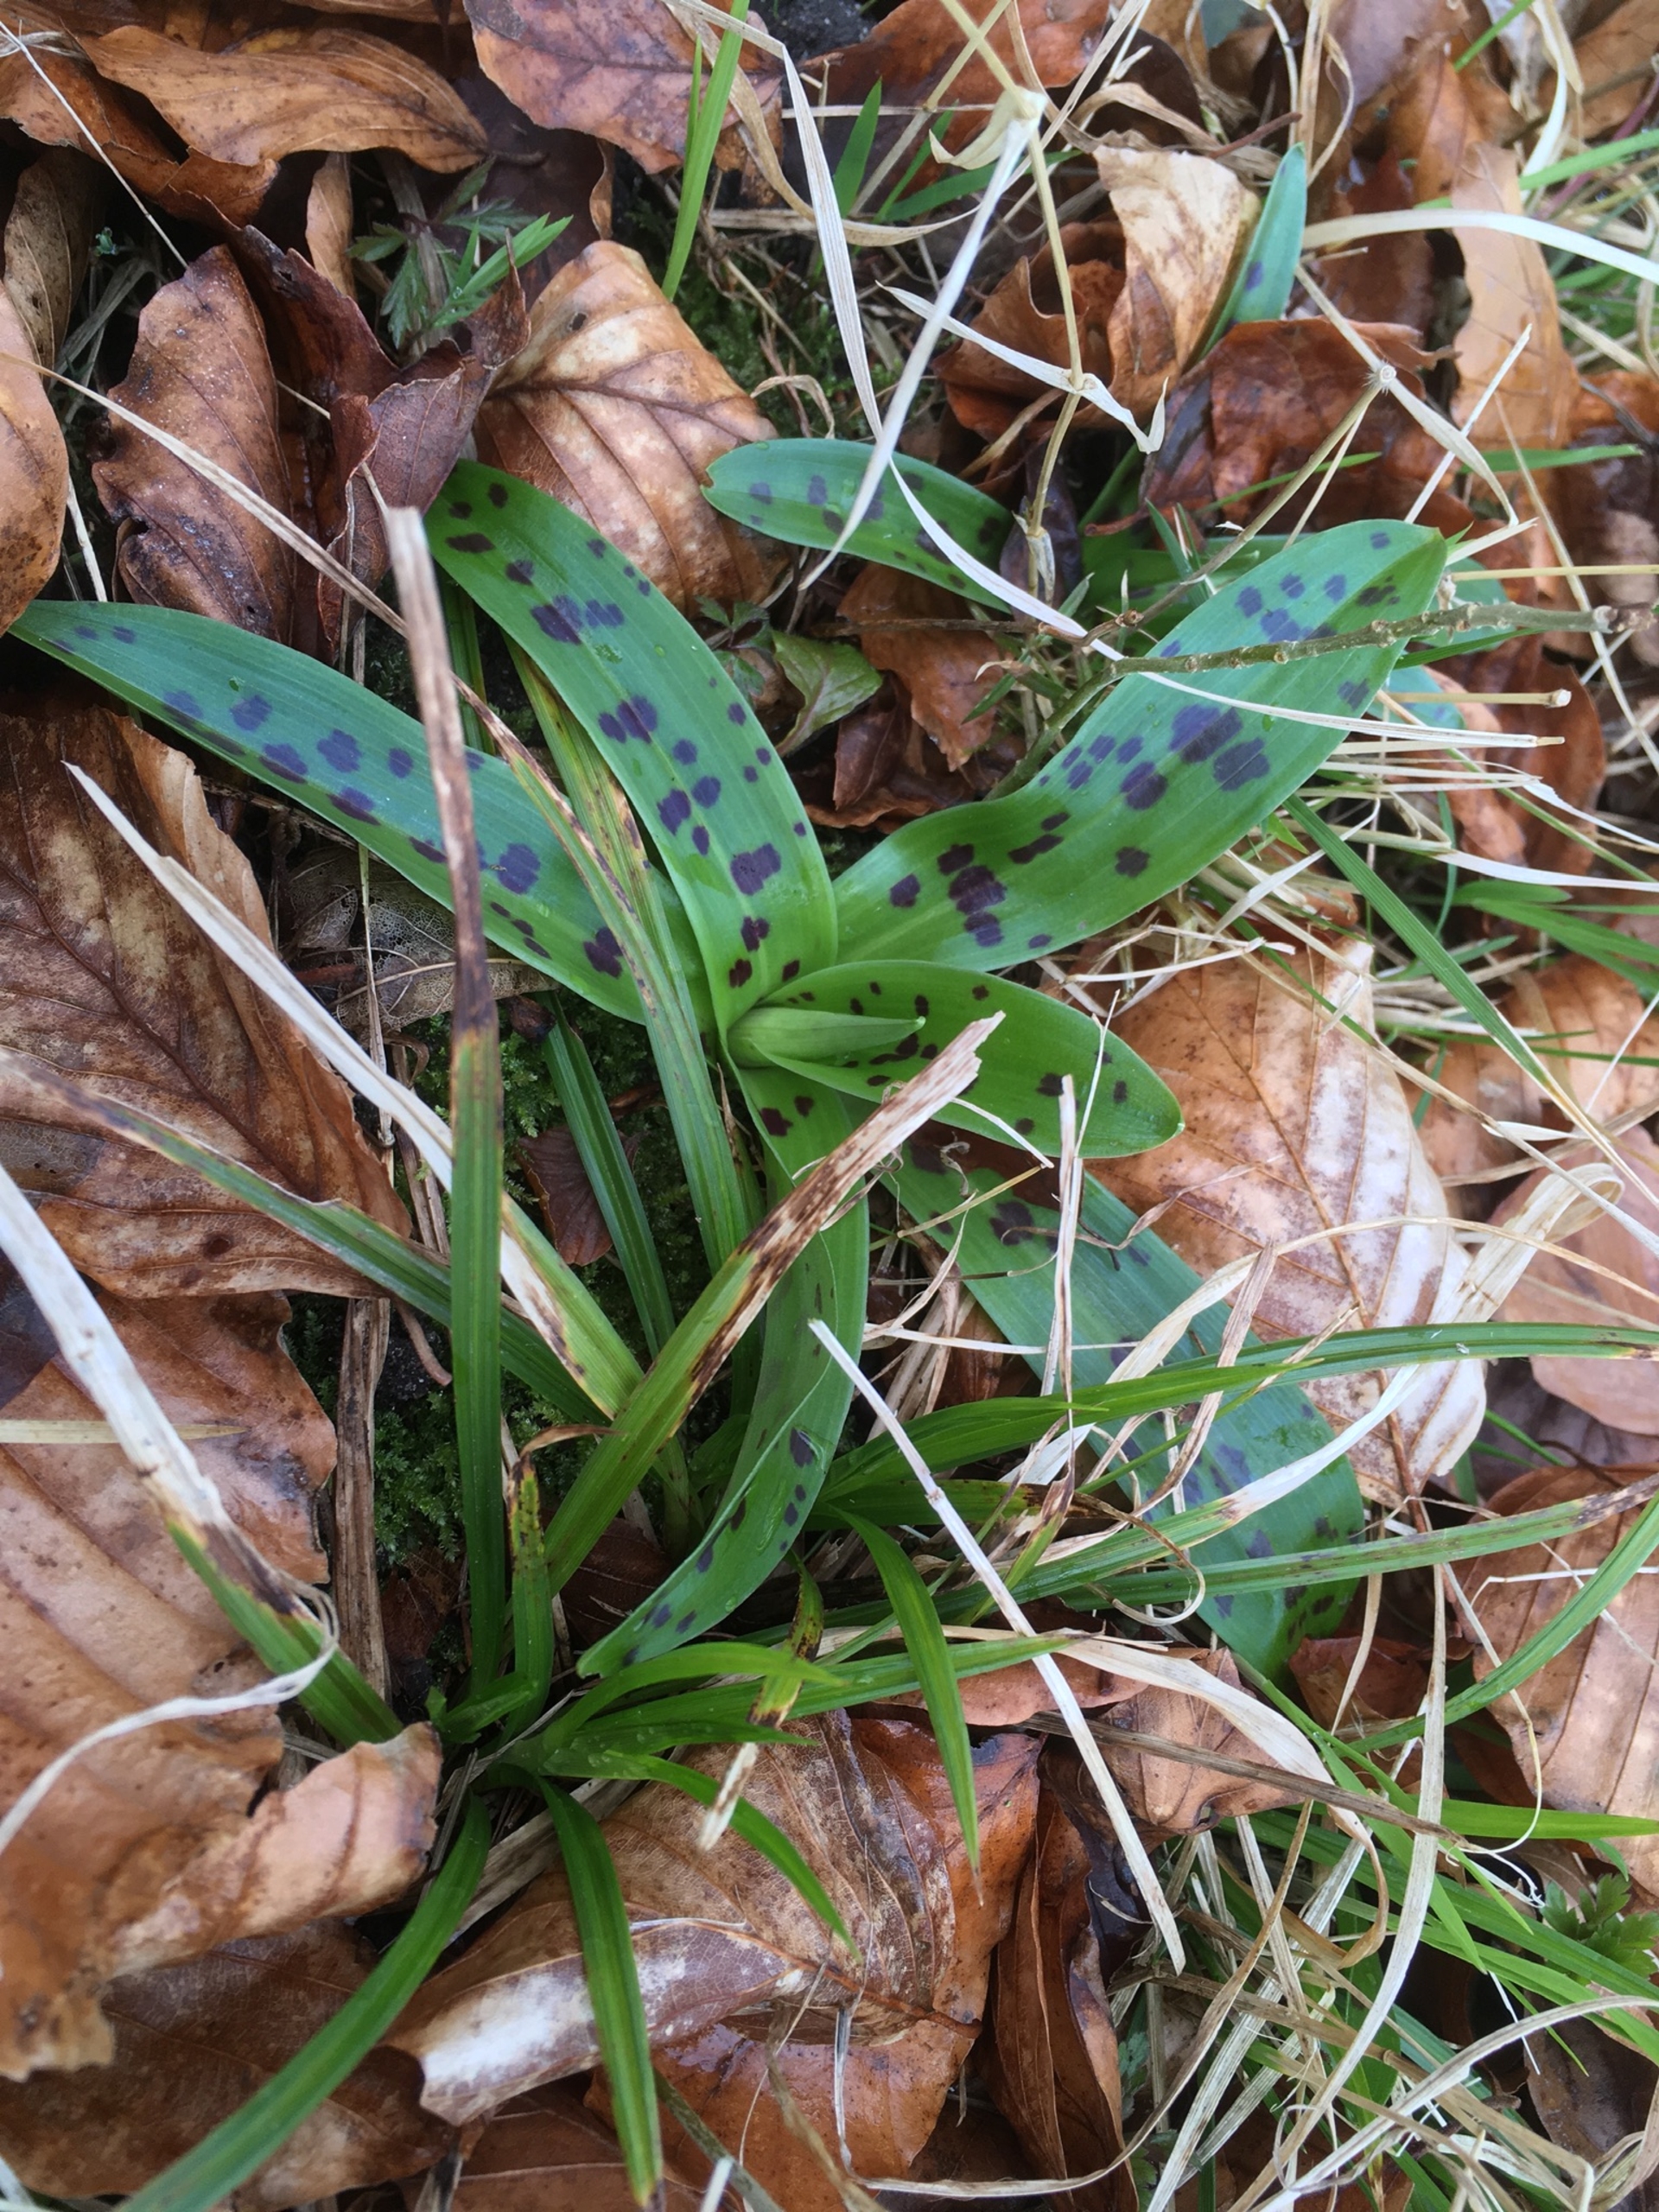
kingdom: Plantae
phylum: Tracheophyta
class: Liliopsida
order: Asparagales
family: Orchidaceae
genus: Orchis
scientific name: Orchis mascula
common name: Tyndakset gøgeurt
